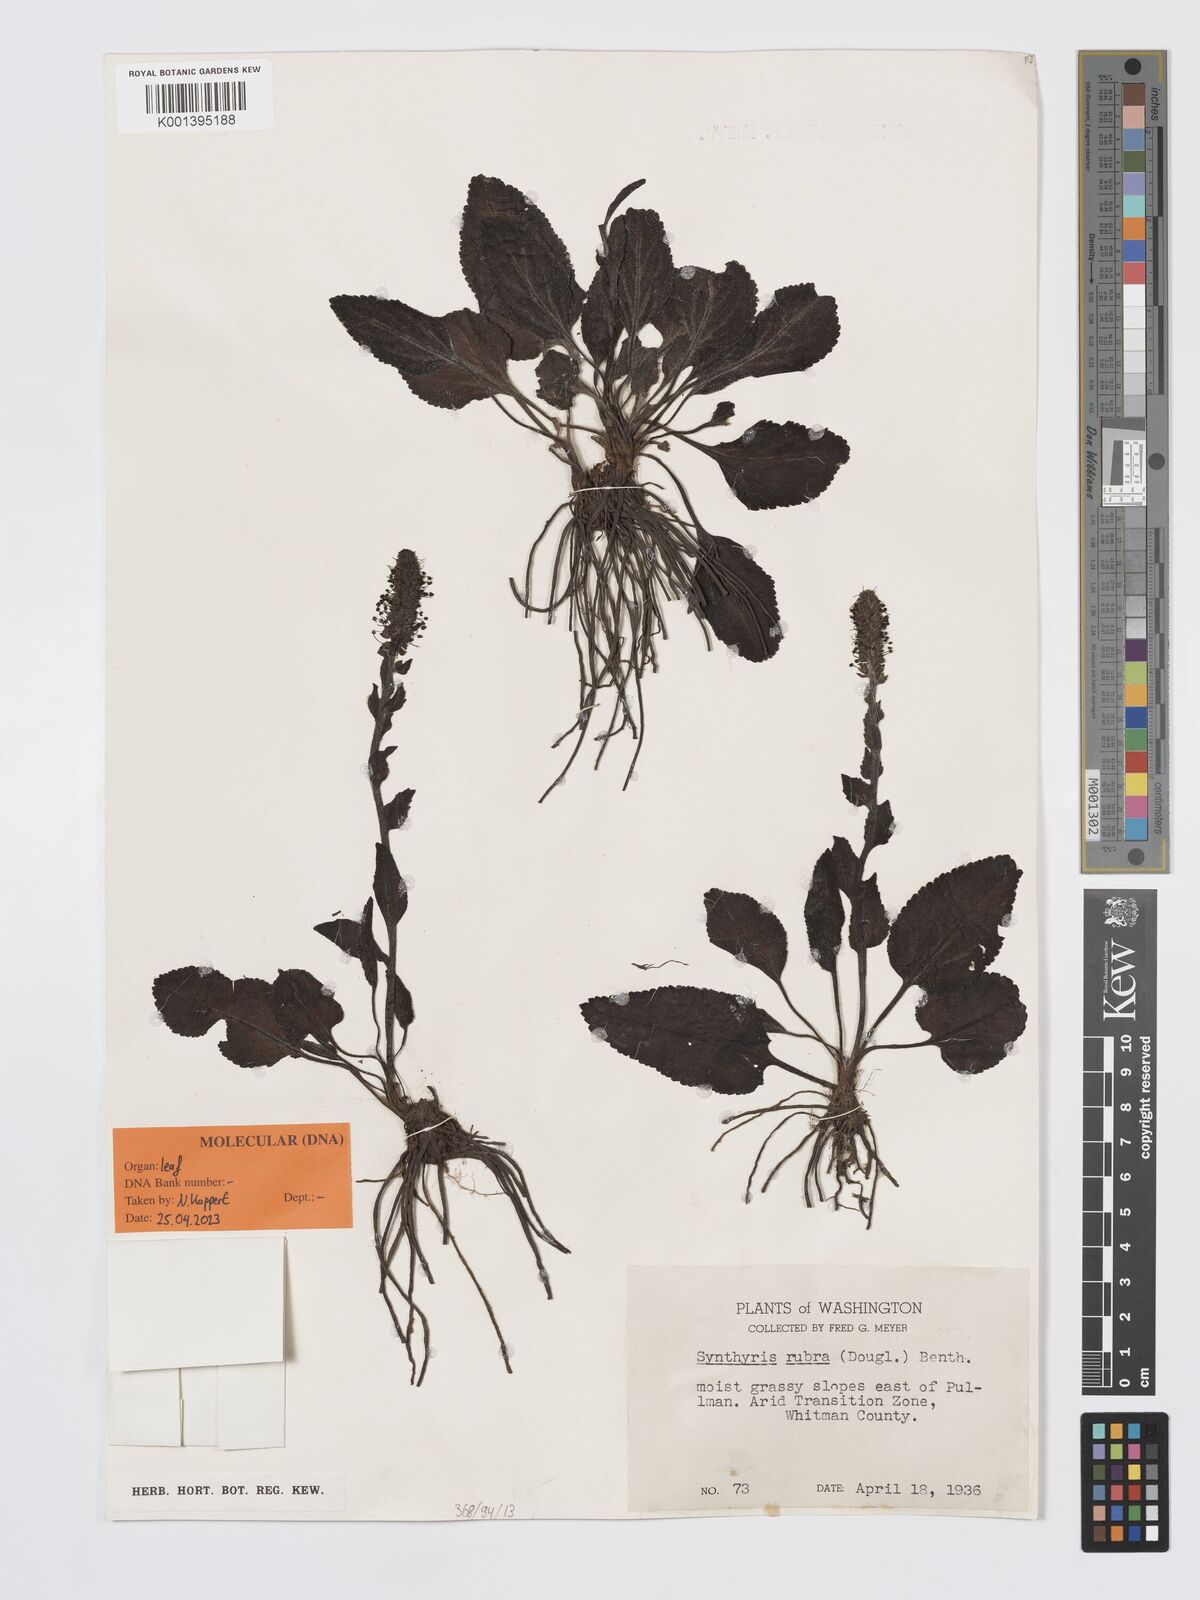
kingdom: Plantae
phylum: Tracheophyta
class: Magnoliopsida
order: Lamiales
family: Plantaginaceae
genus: Synthyris
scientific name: Synthyris rubra
